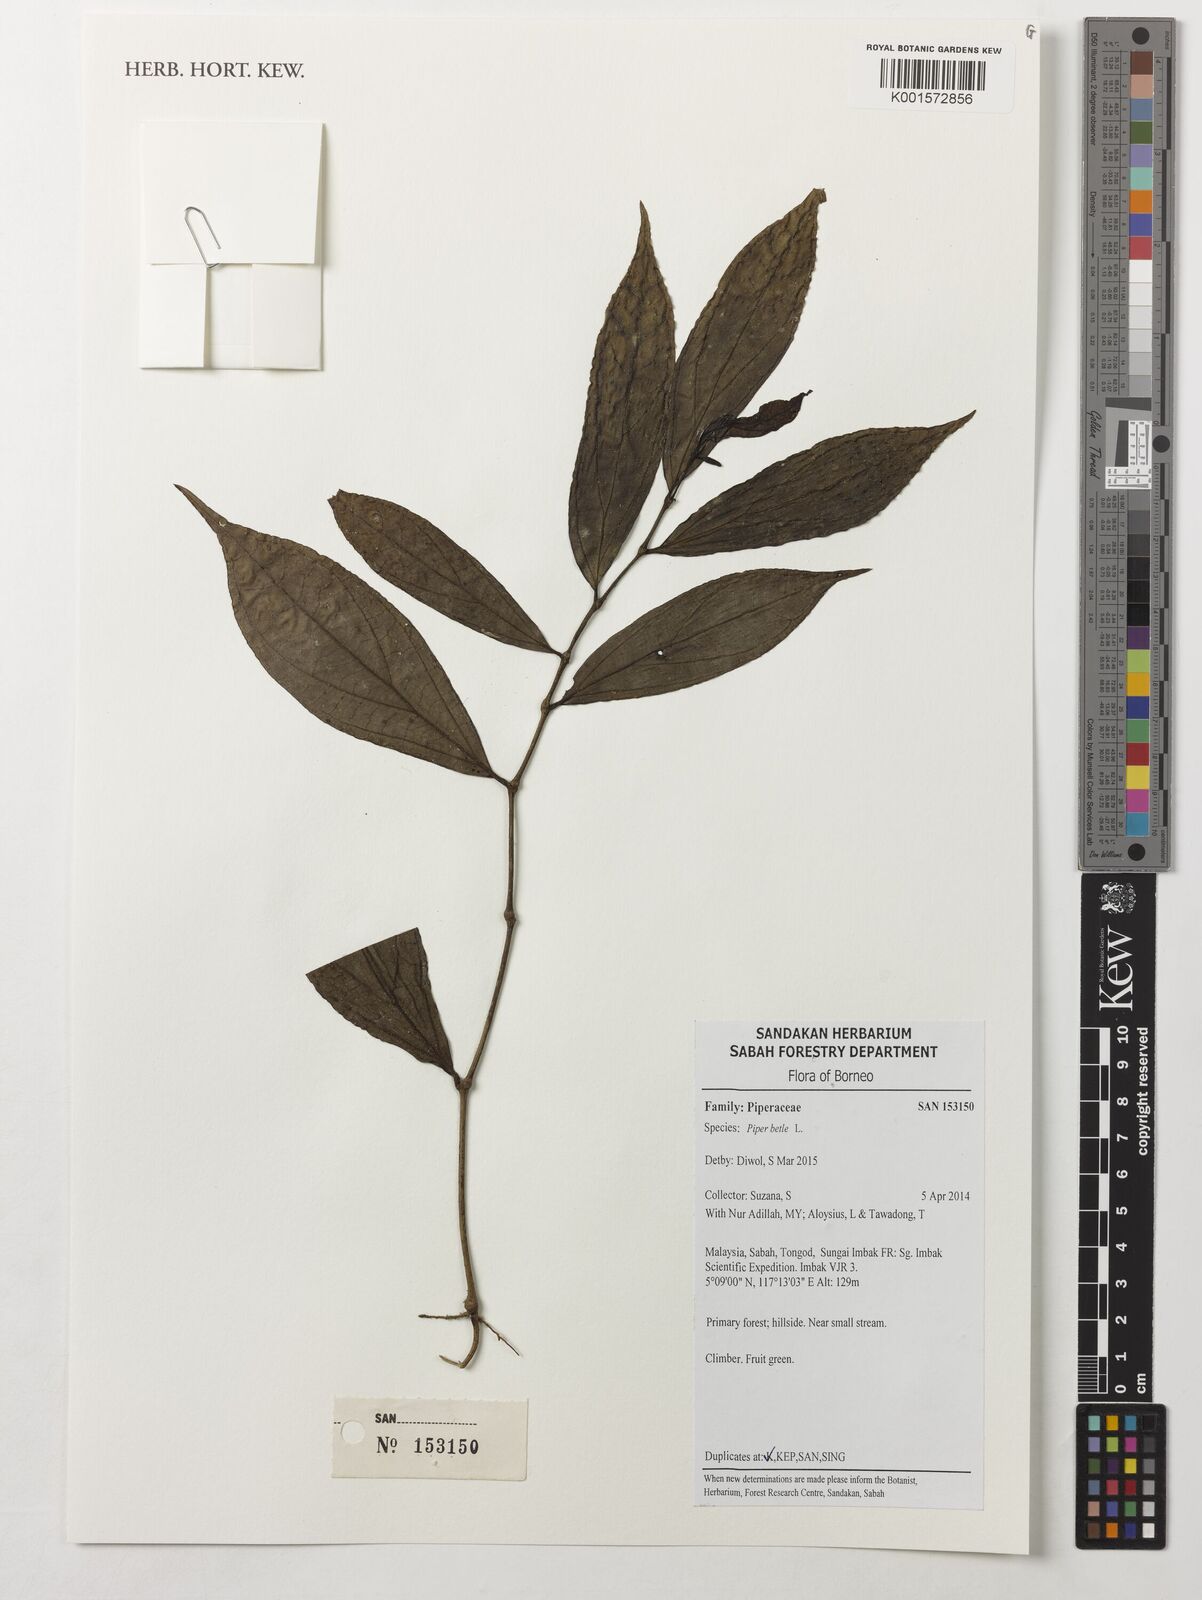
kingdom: Plantae
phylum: Tracheophyta
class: Magnoliopsida
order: Piperales
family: Piperaceae
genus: Piper
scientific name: Piper betle
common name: Betel pepper
